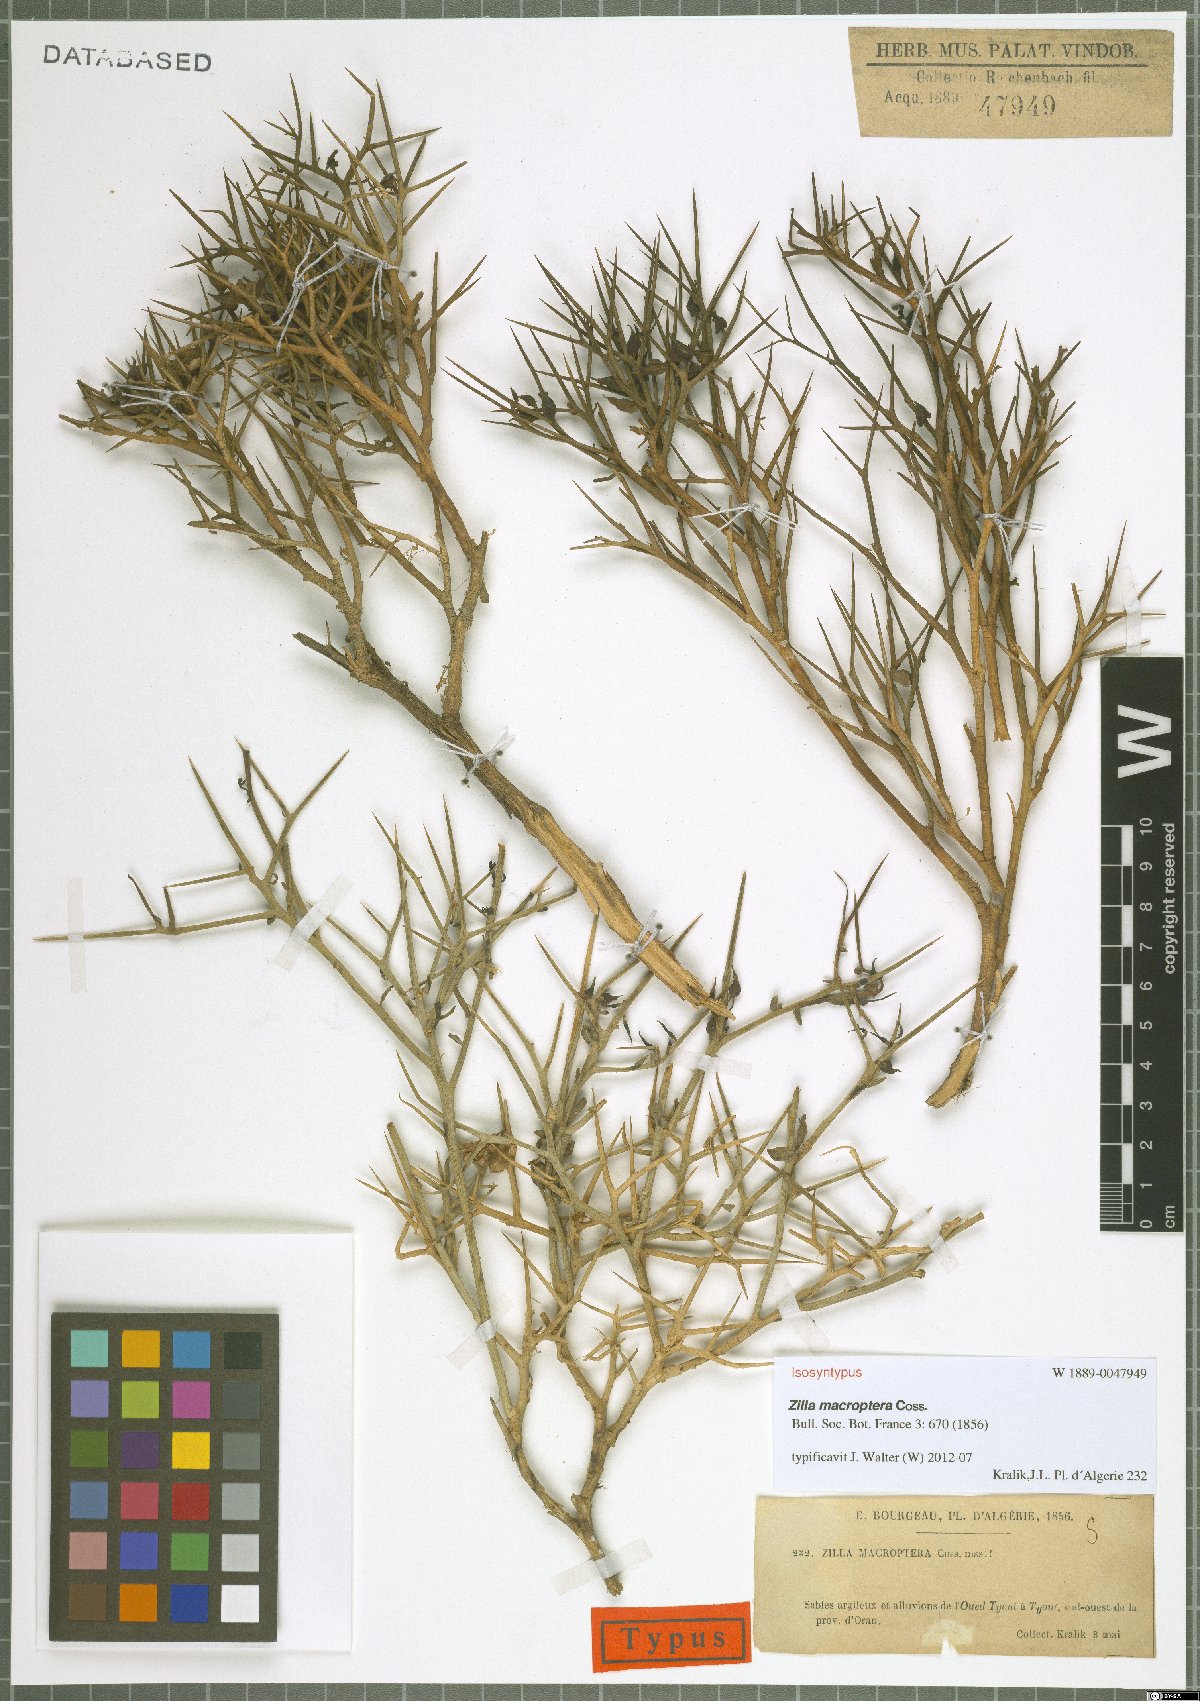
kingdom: Plantae
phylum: Tracheophyta
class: Magnoliopsida
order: Brassicales
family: Brassicaceae
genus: Zilla
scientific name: Zilla macroptera
